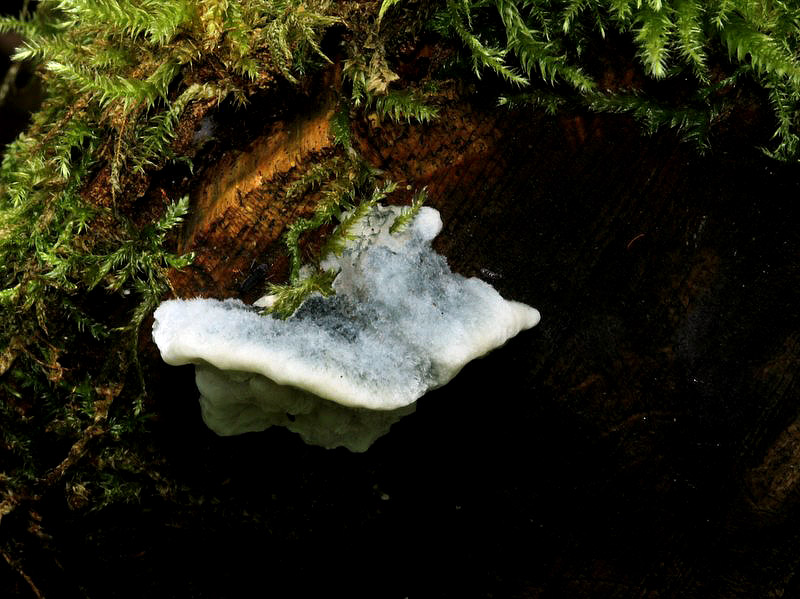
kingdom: Fungi
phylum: Basidiomycota
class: Agaricomycetes
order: Polyporales
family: Polyporaceae
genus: Cyanosporus
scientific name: Cyanosporus caesius
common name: blålig kødporesvamp
